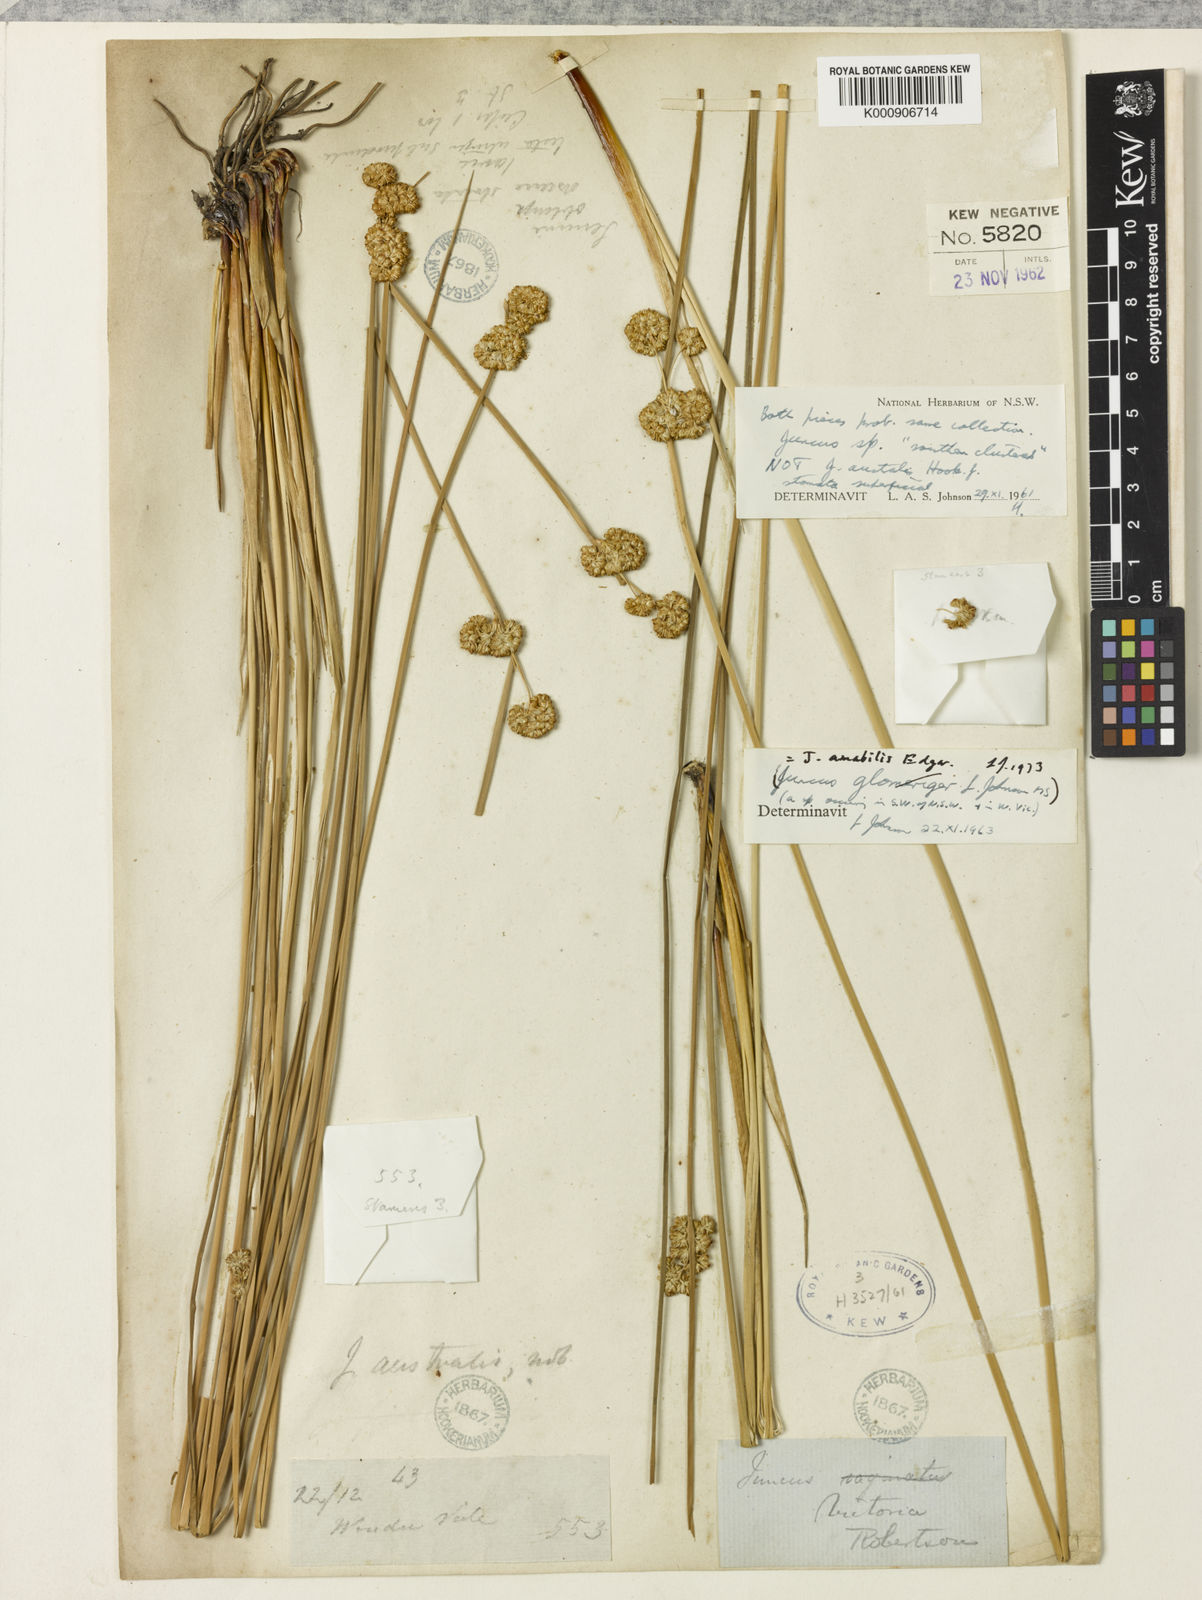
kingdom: Plantae
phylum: Tracheophyta
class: Liliopsida
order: Poales
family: Juncaceae
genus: Juncus
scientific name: Juncus amabilis
